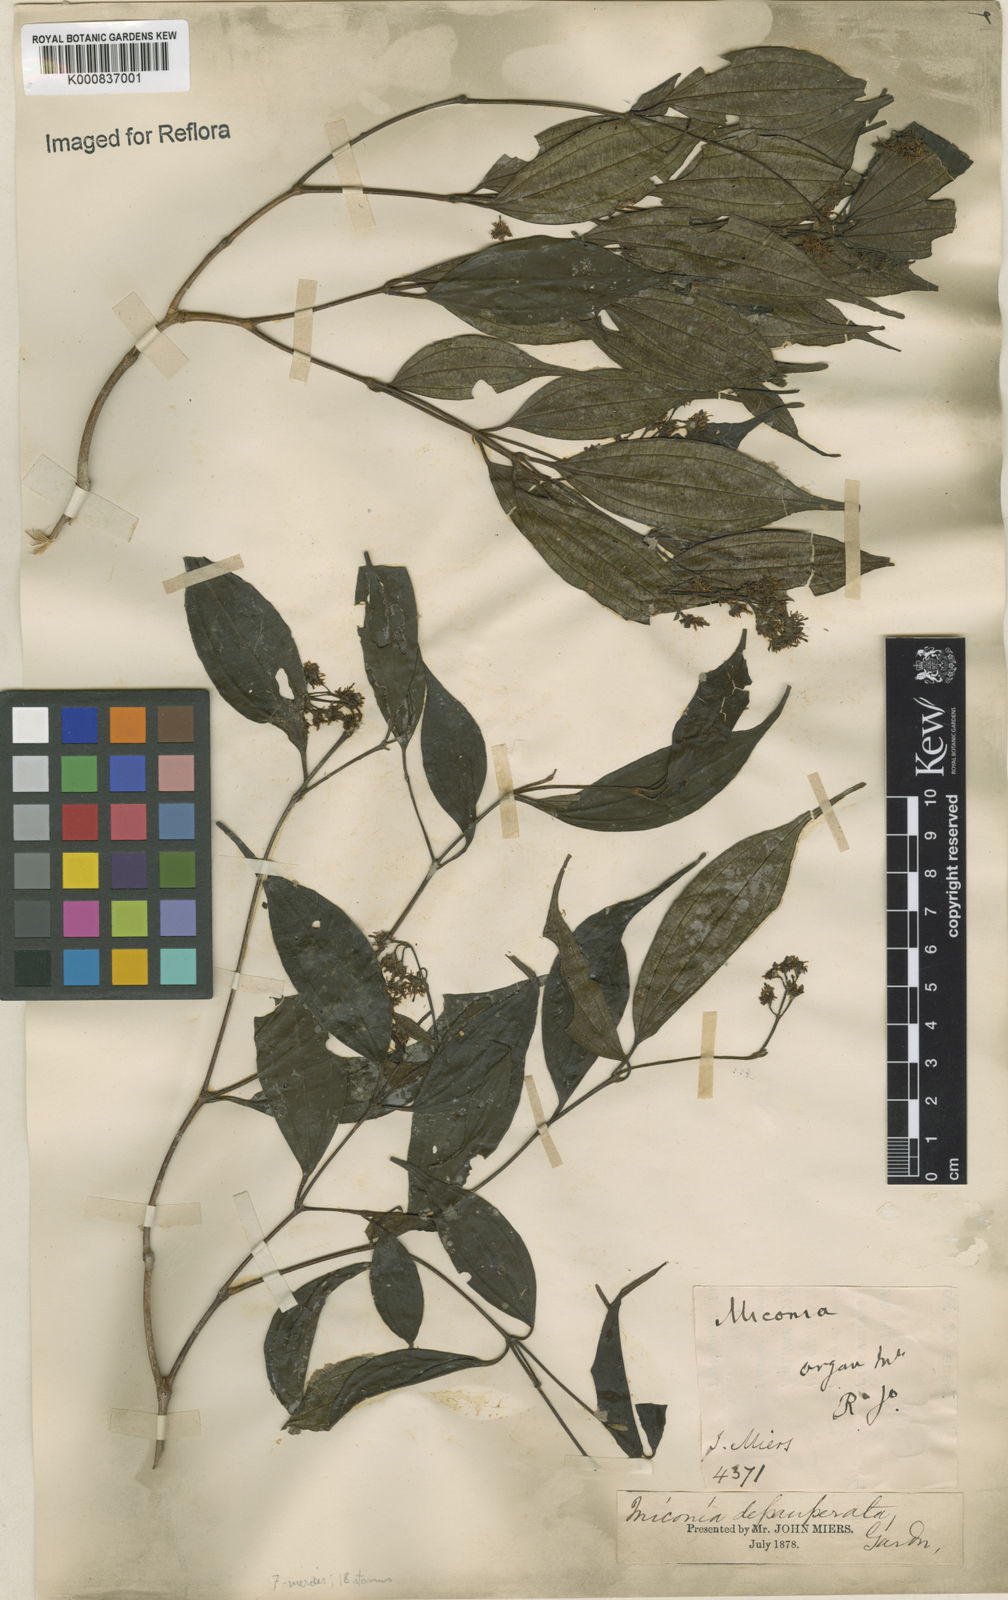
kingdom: Plantae
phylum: Tracheophyta
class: Magnoliopsida
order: Myrtales
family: Melastomataceae
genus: Miconia
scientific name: Miconia depauperata
